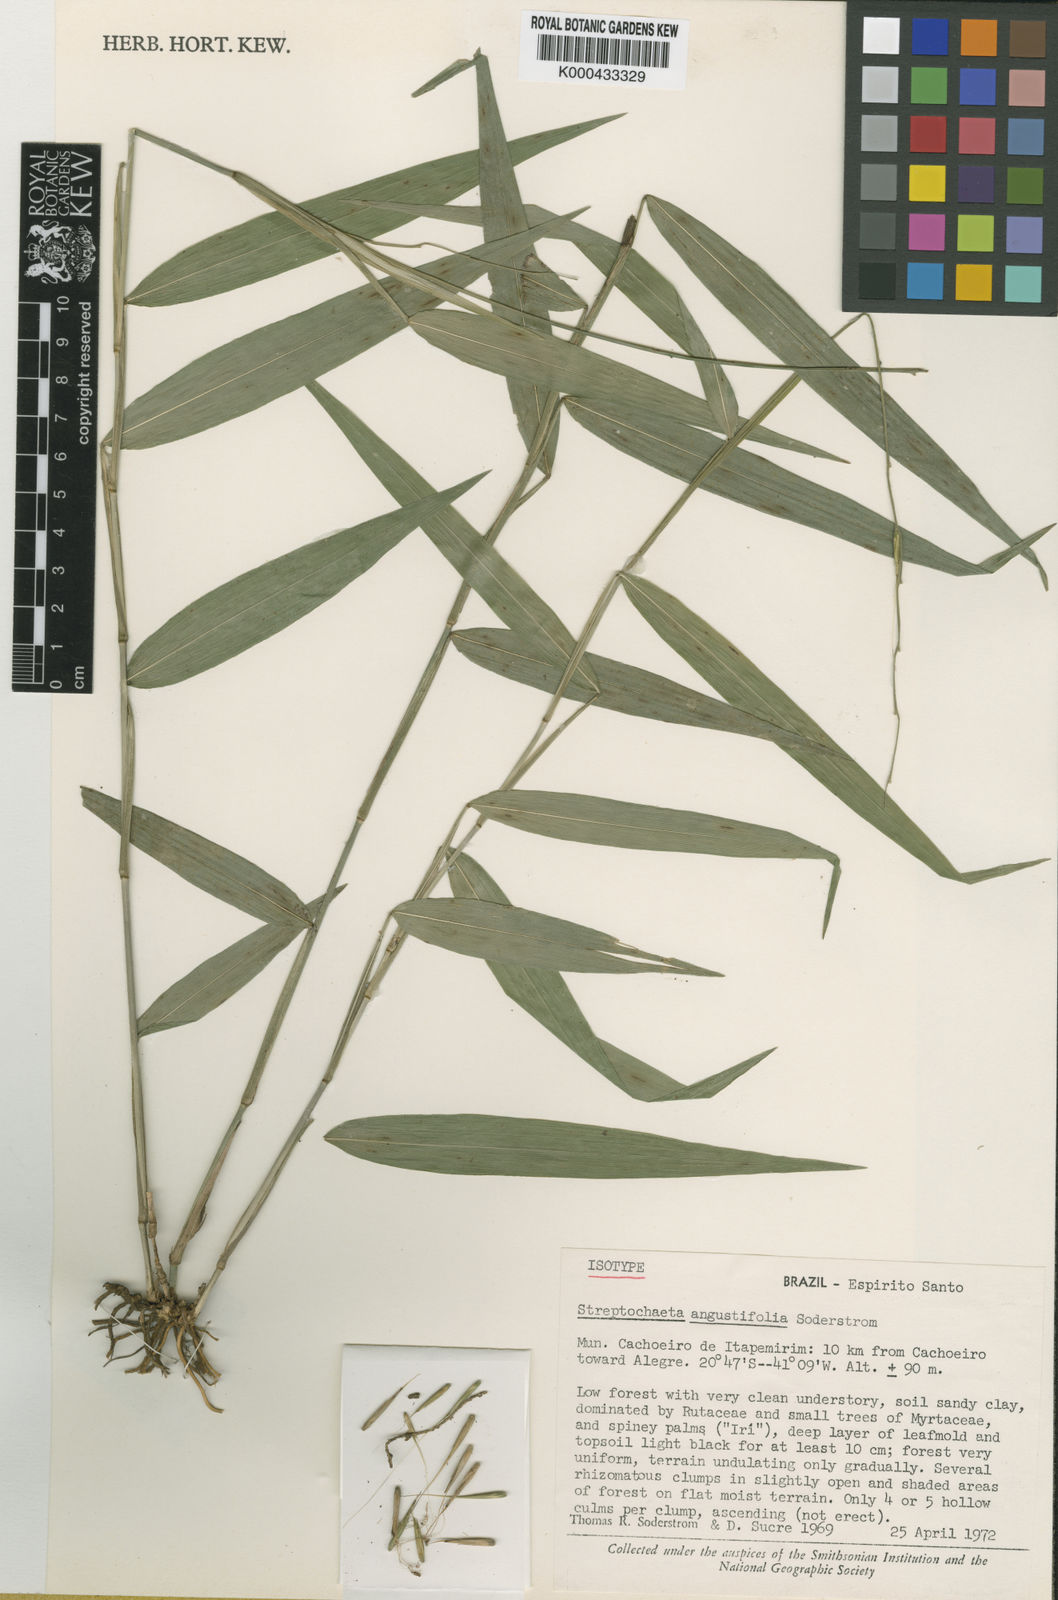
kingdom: Plantae
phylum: Tracheophyta
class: Liliopsida
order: Poales
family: Poaceae
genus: Streptochaeta
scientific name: Streptochaeta angustifolia
